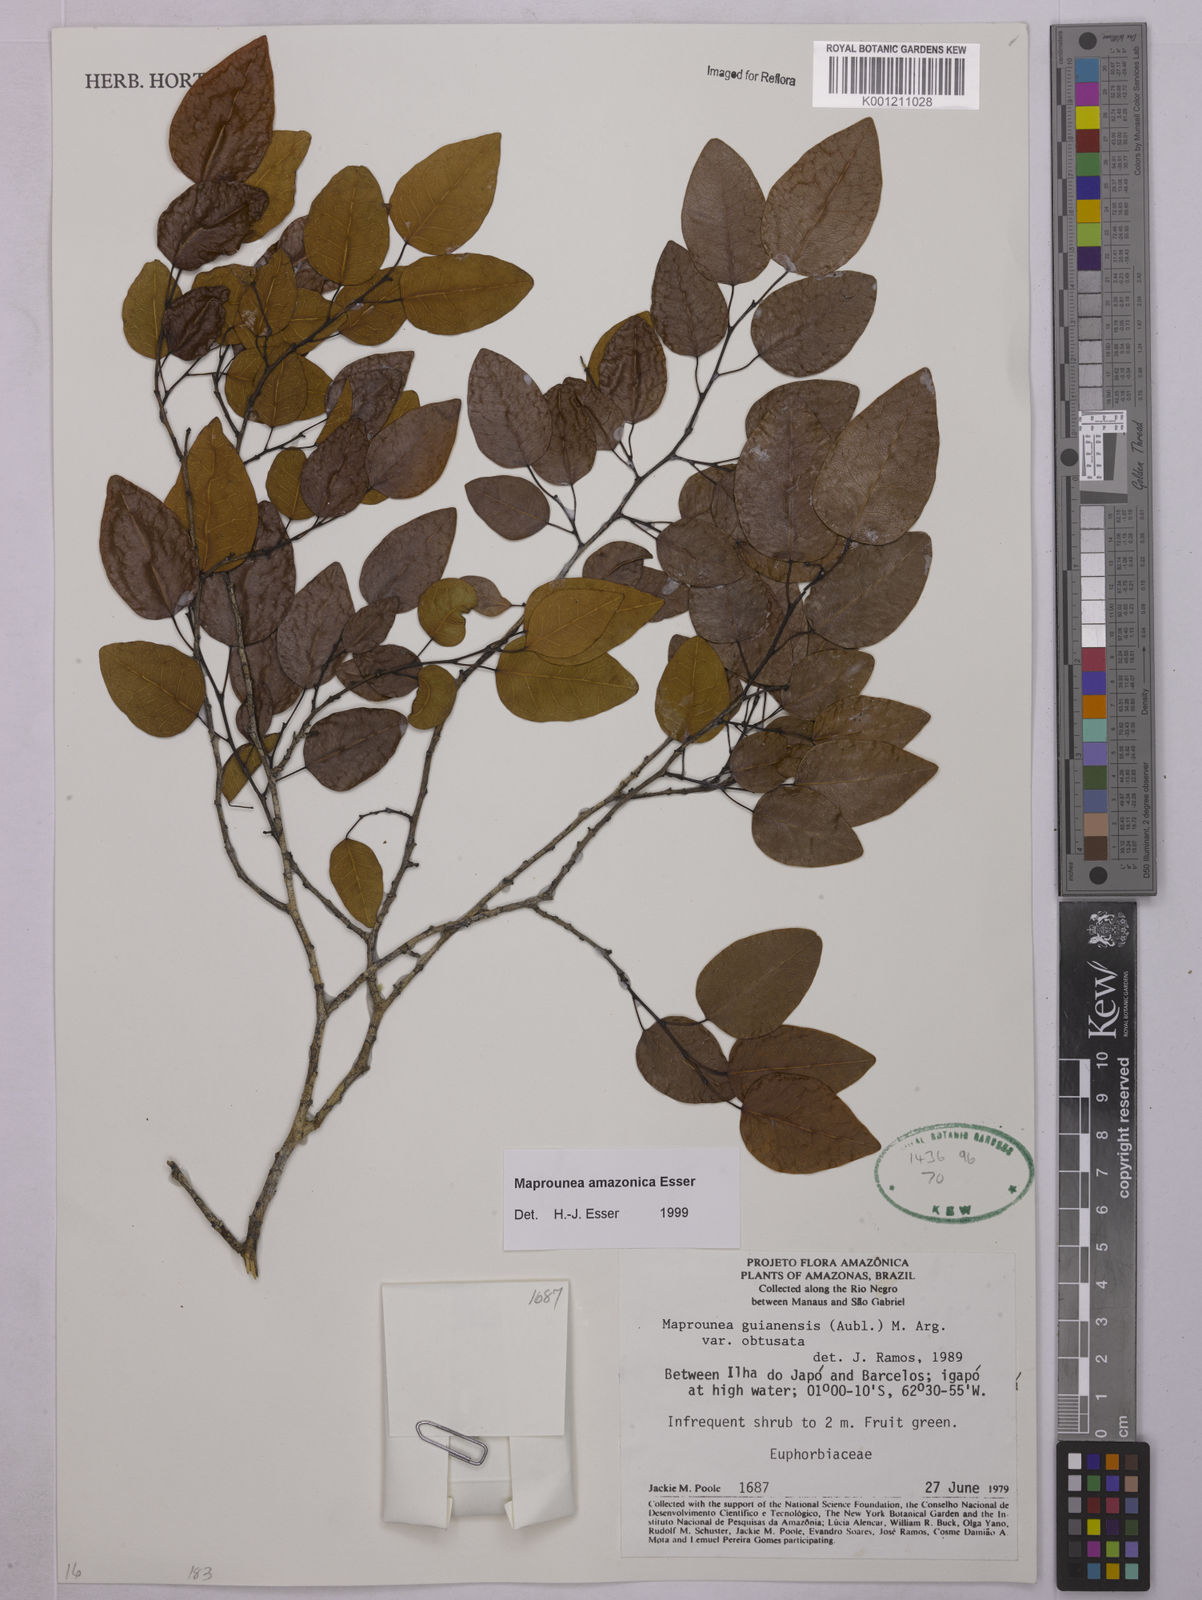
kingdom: Plantae
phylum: Tracheophyta
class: Magnoliopsida
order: Malpighiales
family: Euphorbiaceae
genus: Maprounea
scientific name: Maprounea amazonica
